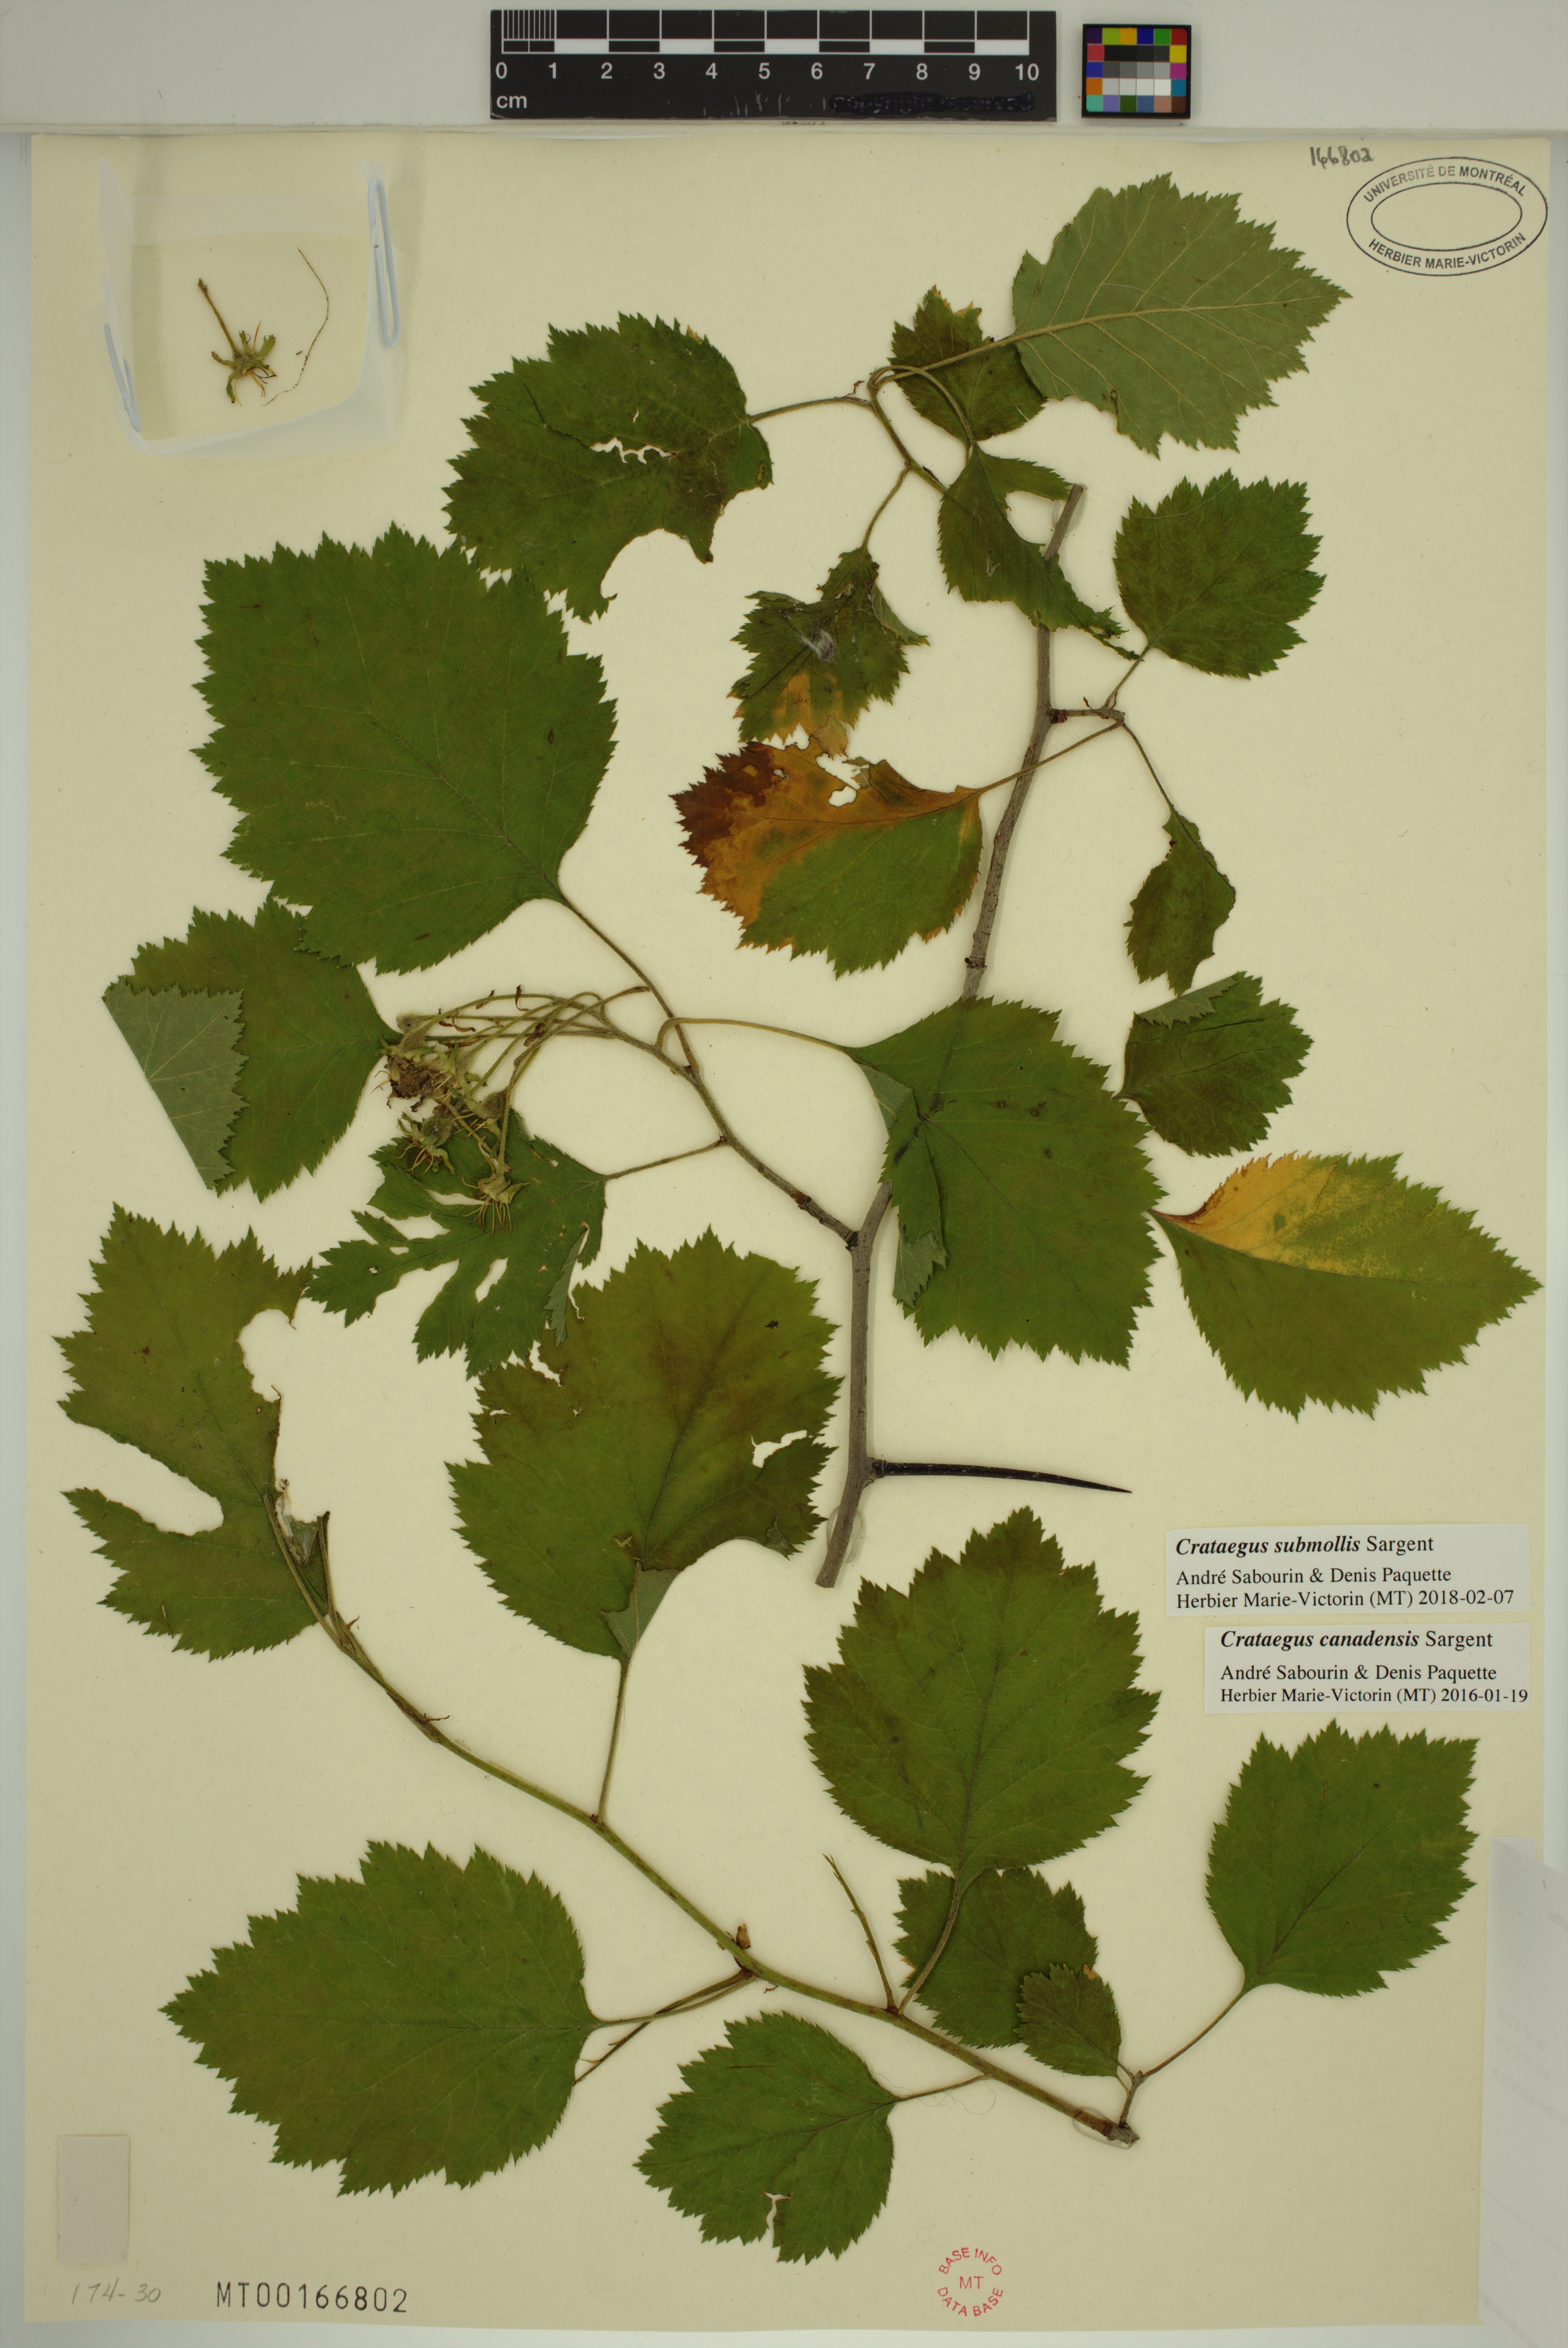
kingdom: Plantae
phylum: Tracheophyta
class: Magnoliopsida
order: Rosales
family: Rosaceae
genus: Crataegus
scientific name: Crataegus submollis
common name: Hairy cockspurthorn
